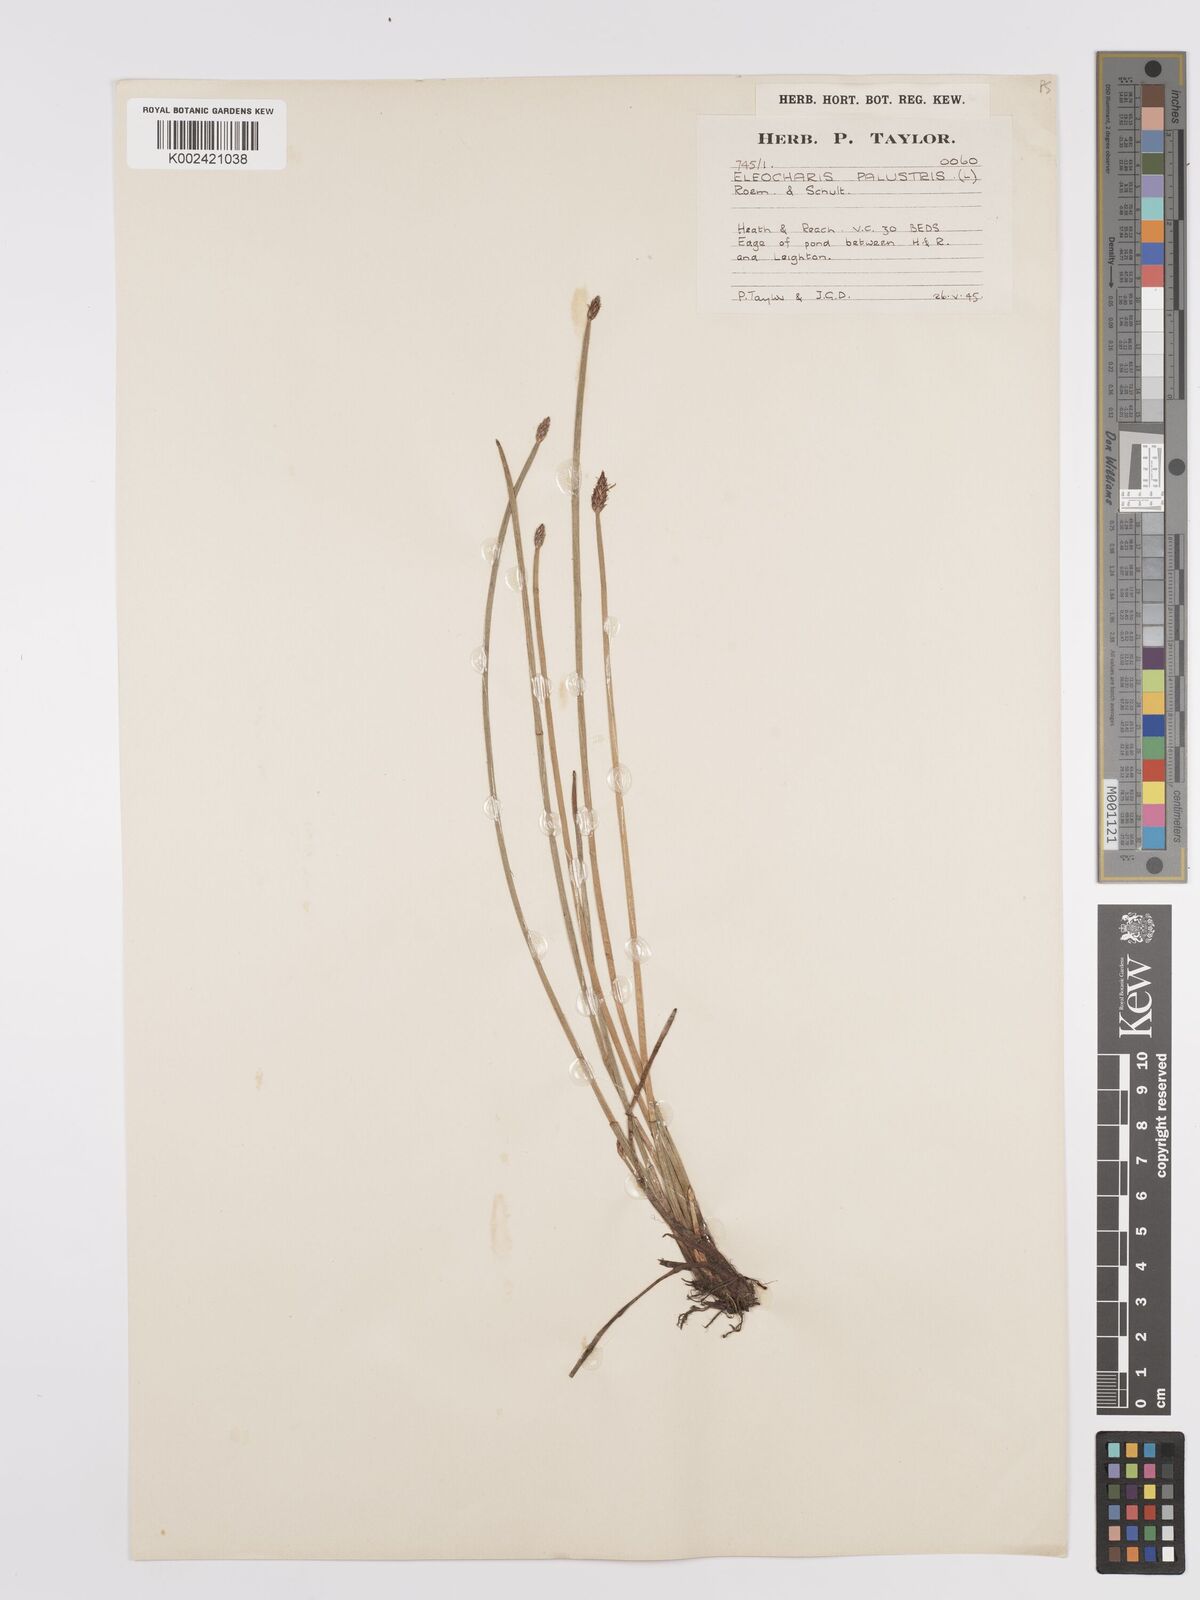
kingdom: Plantae
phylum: Tracheophyta
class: Liliopsida
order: Poales
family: Cyperaceae
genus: Eleocharis
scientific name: Eleocharis palustris
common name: Common spike-rush
